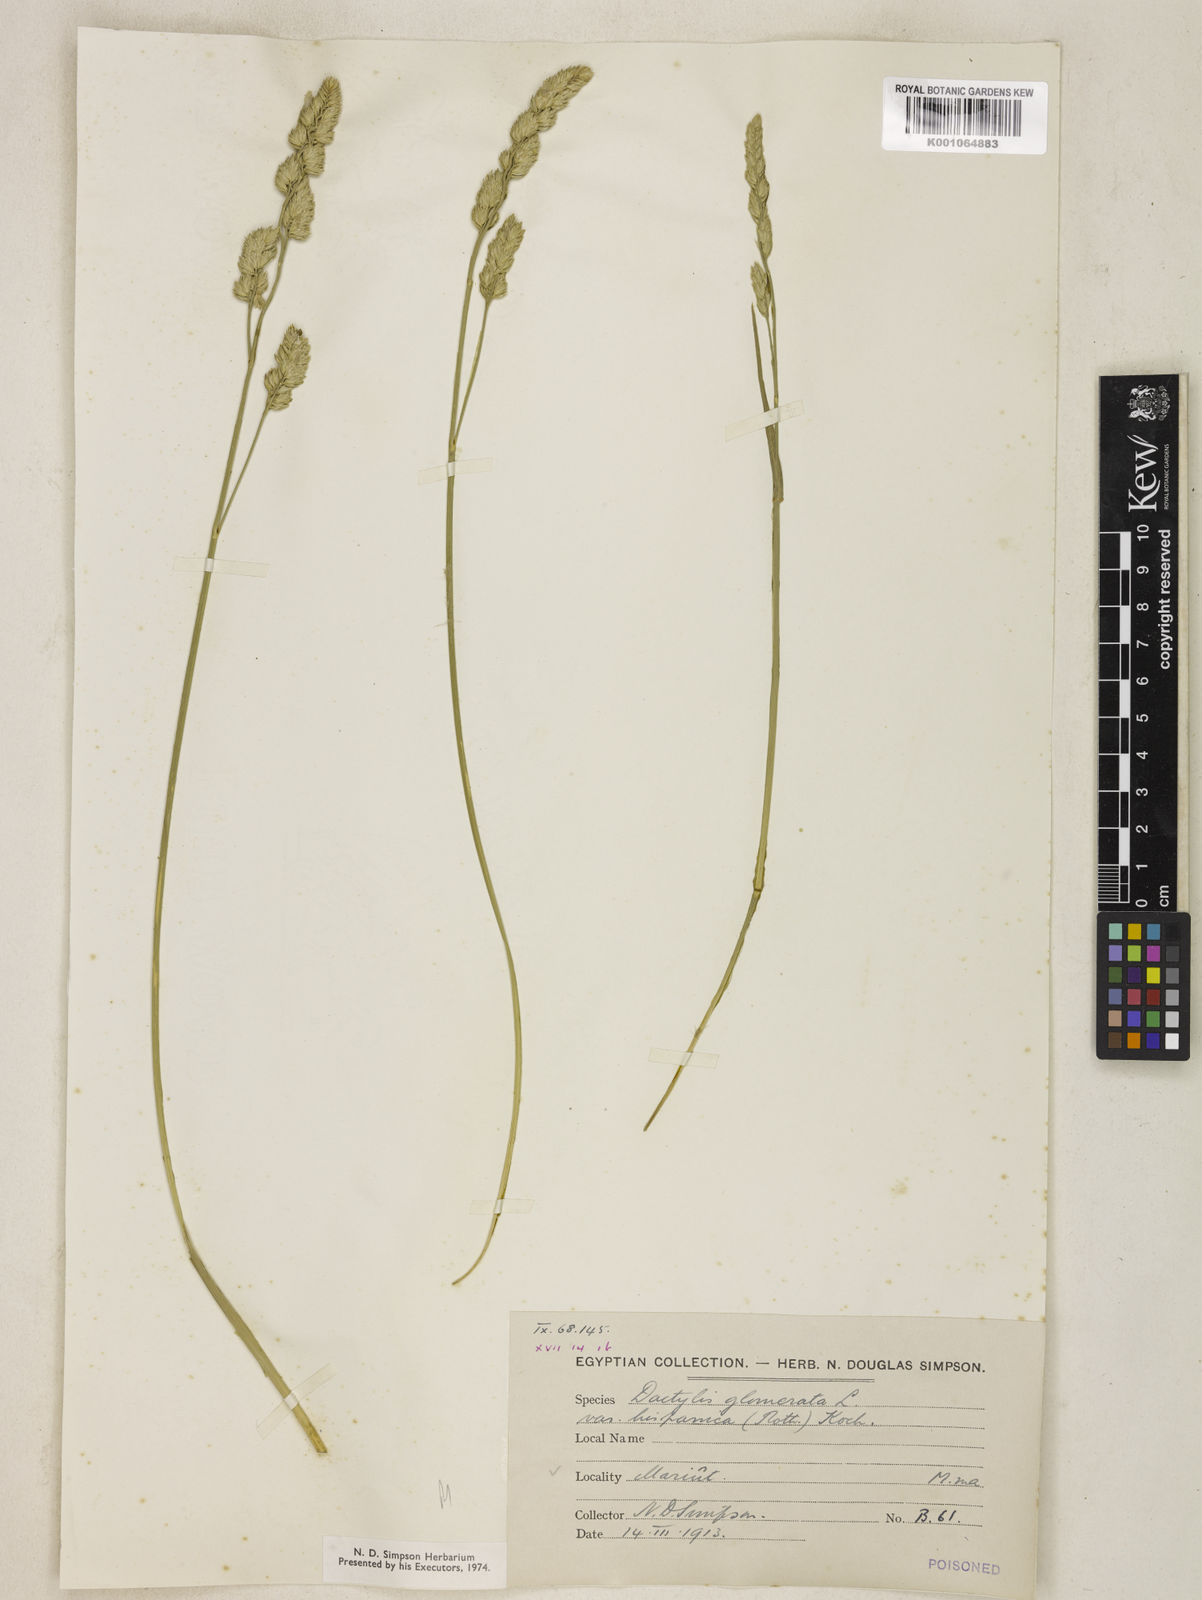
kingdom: Plantae
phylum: Tracheophyta
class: Liliopsida
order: Poales
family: Poaceae
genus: Dactylis
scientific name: Dactylis glomerata
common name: Orchardgrass
